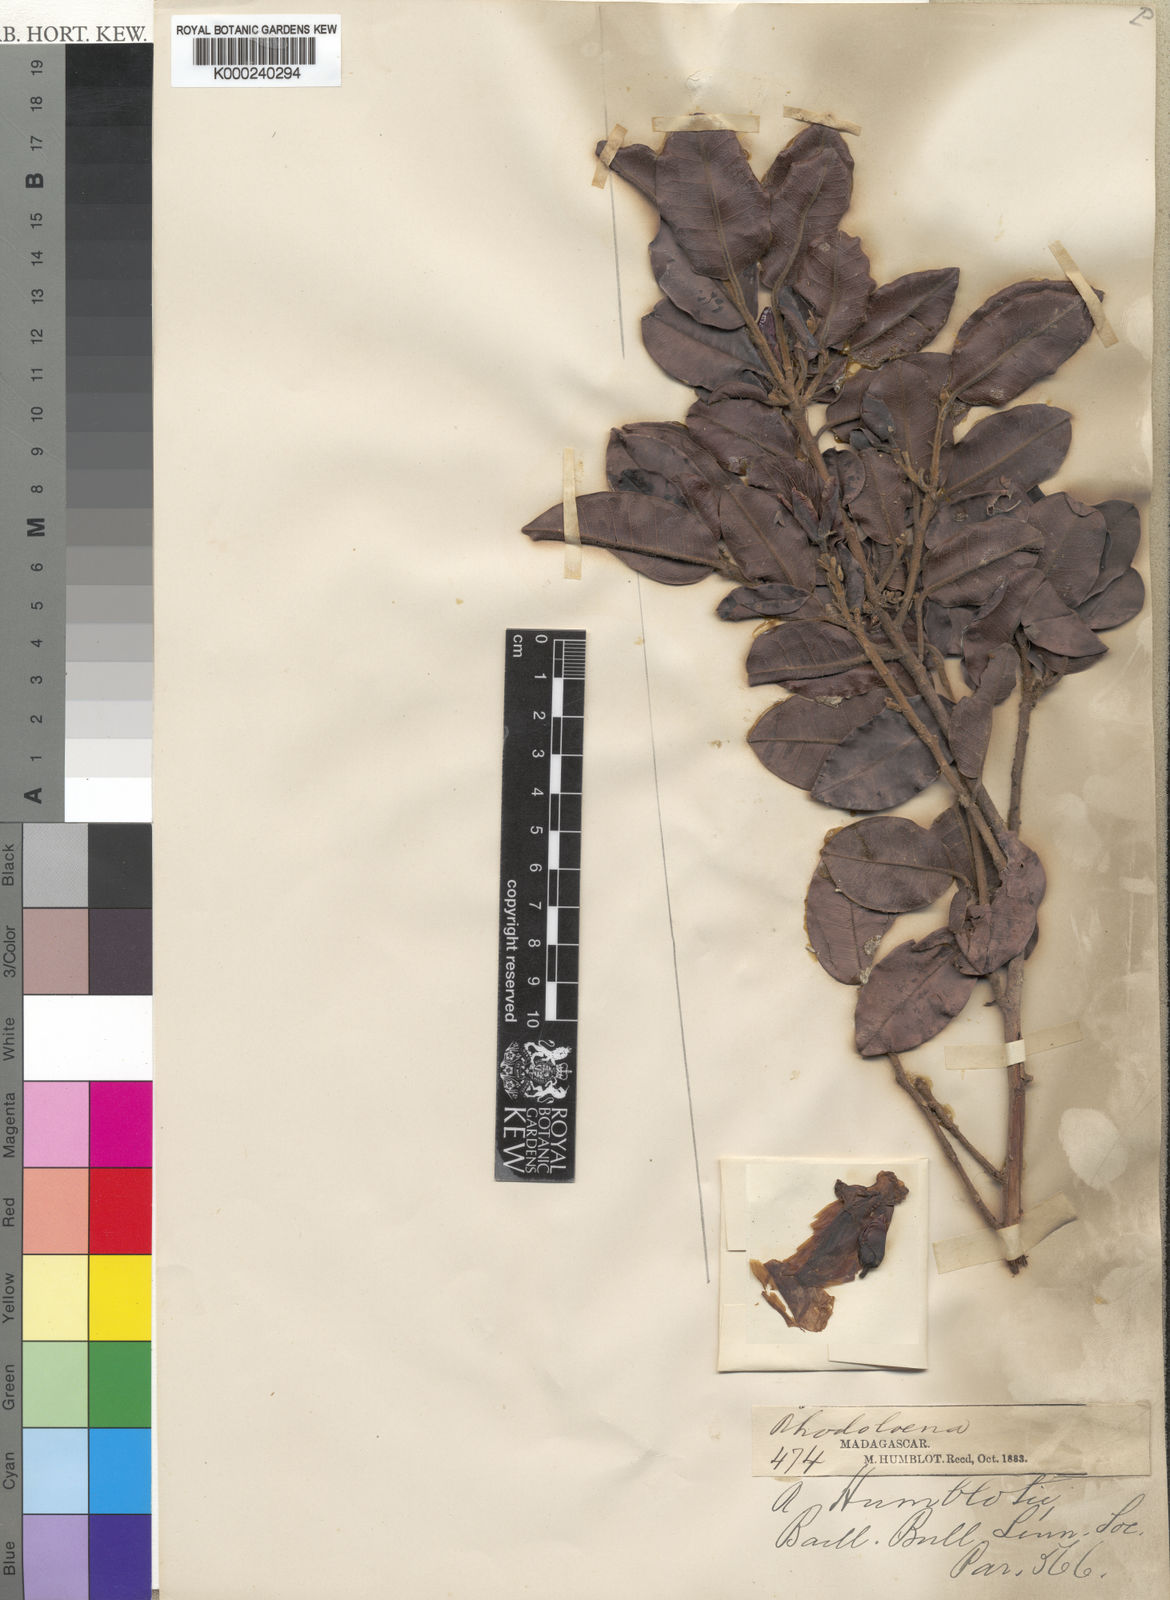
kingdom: Plantae
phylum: Tracheophyta
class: Magnoliopsida
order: Malvales
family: Sarcolaenaceae
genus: Rhodolaena
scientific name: Rhodolaena humblotii
